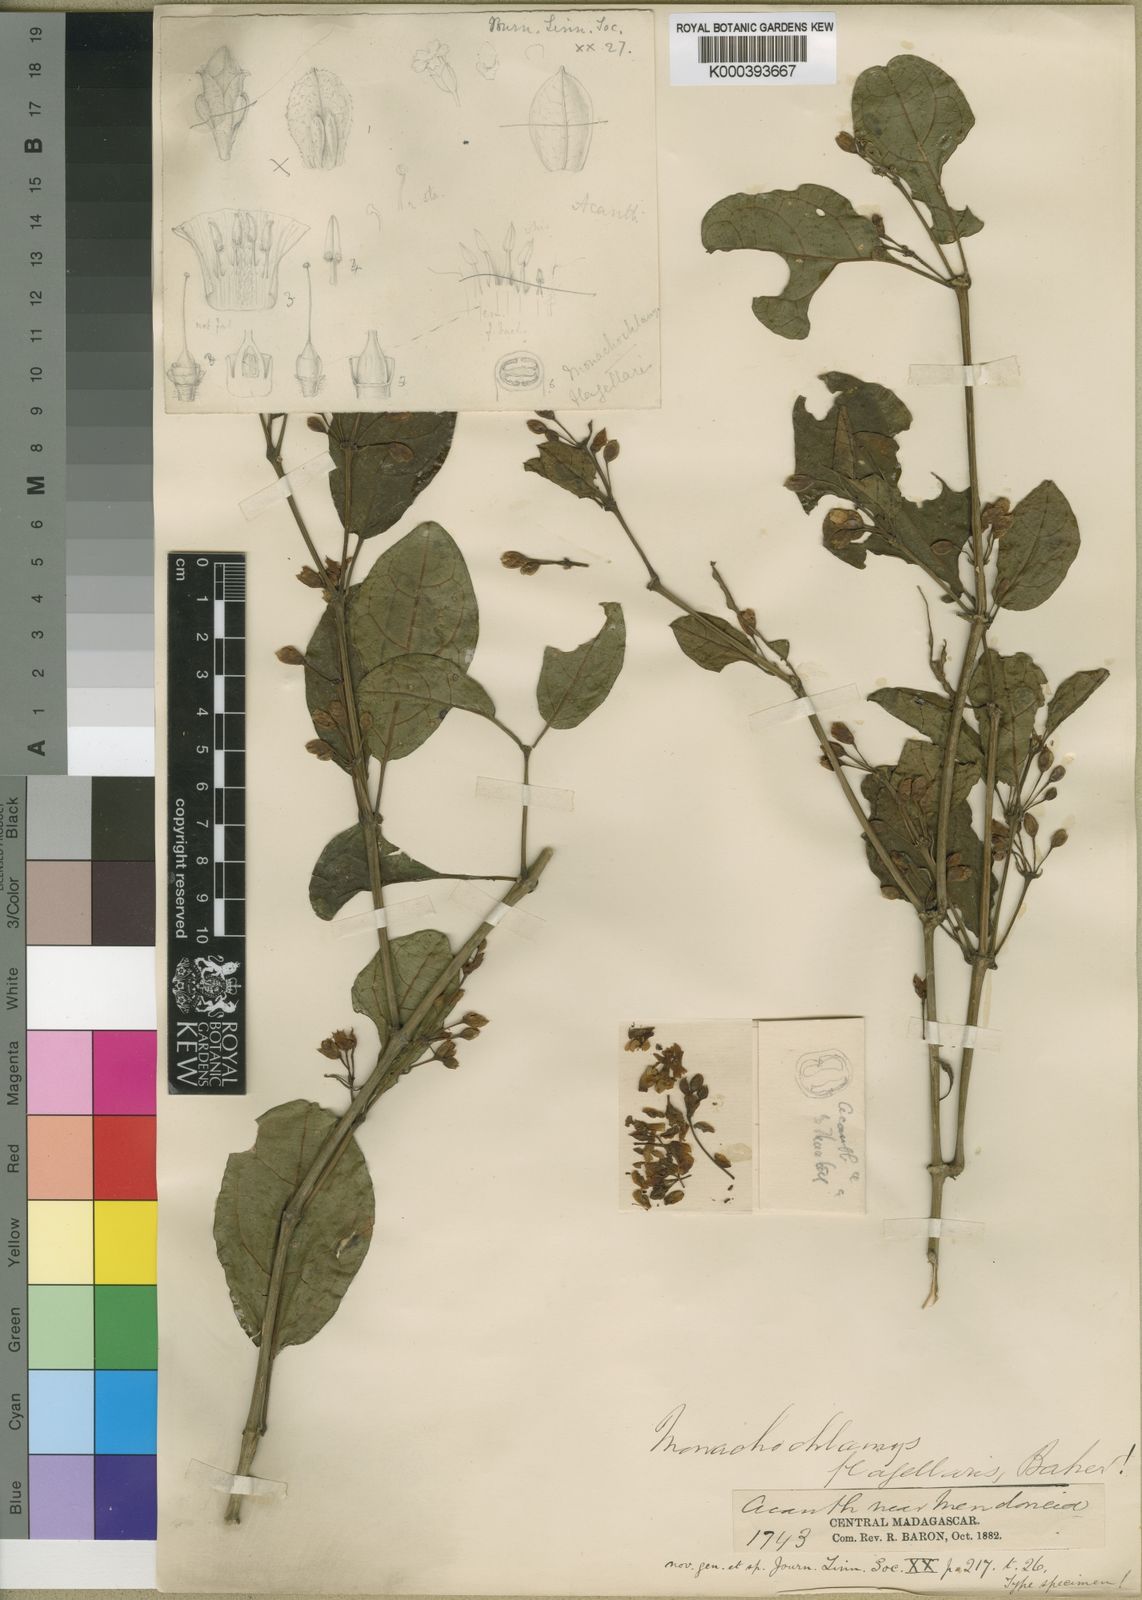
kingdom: Plantae
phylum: Tracheophyta
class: Magnoliopsida
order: Lamiales
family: Acanthaceae
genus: Mendoncia
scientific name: Mendoncia flagellaris
